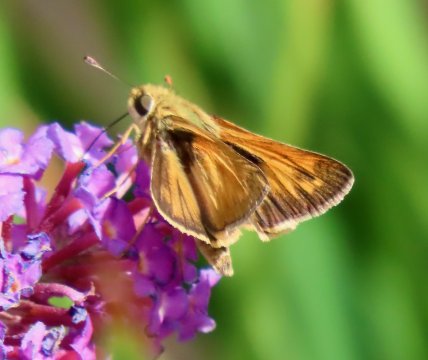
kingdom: Animalia
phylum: Arthropoda
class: Insecta
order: Lepidoptera
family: Hesperiidae
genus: Atalopedes
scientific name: Atalopedes campestris
